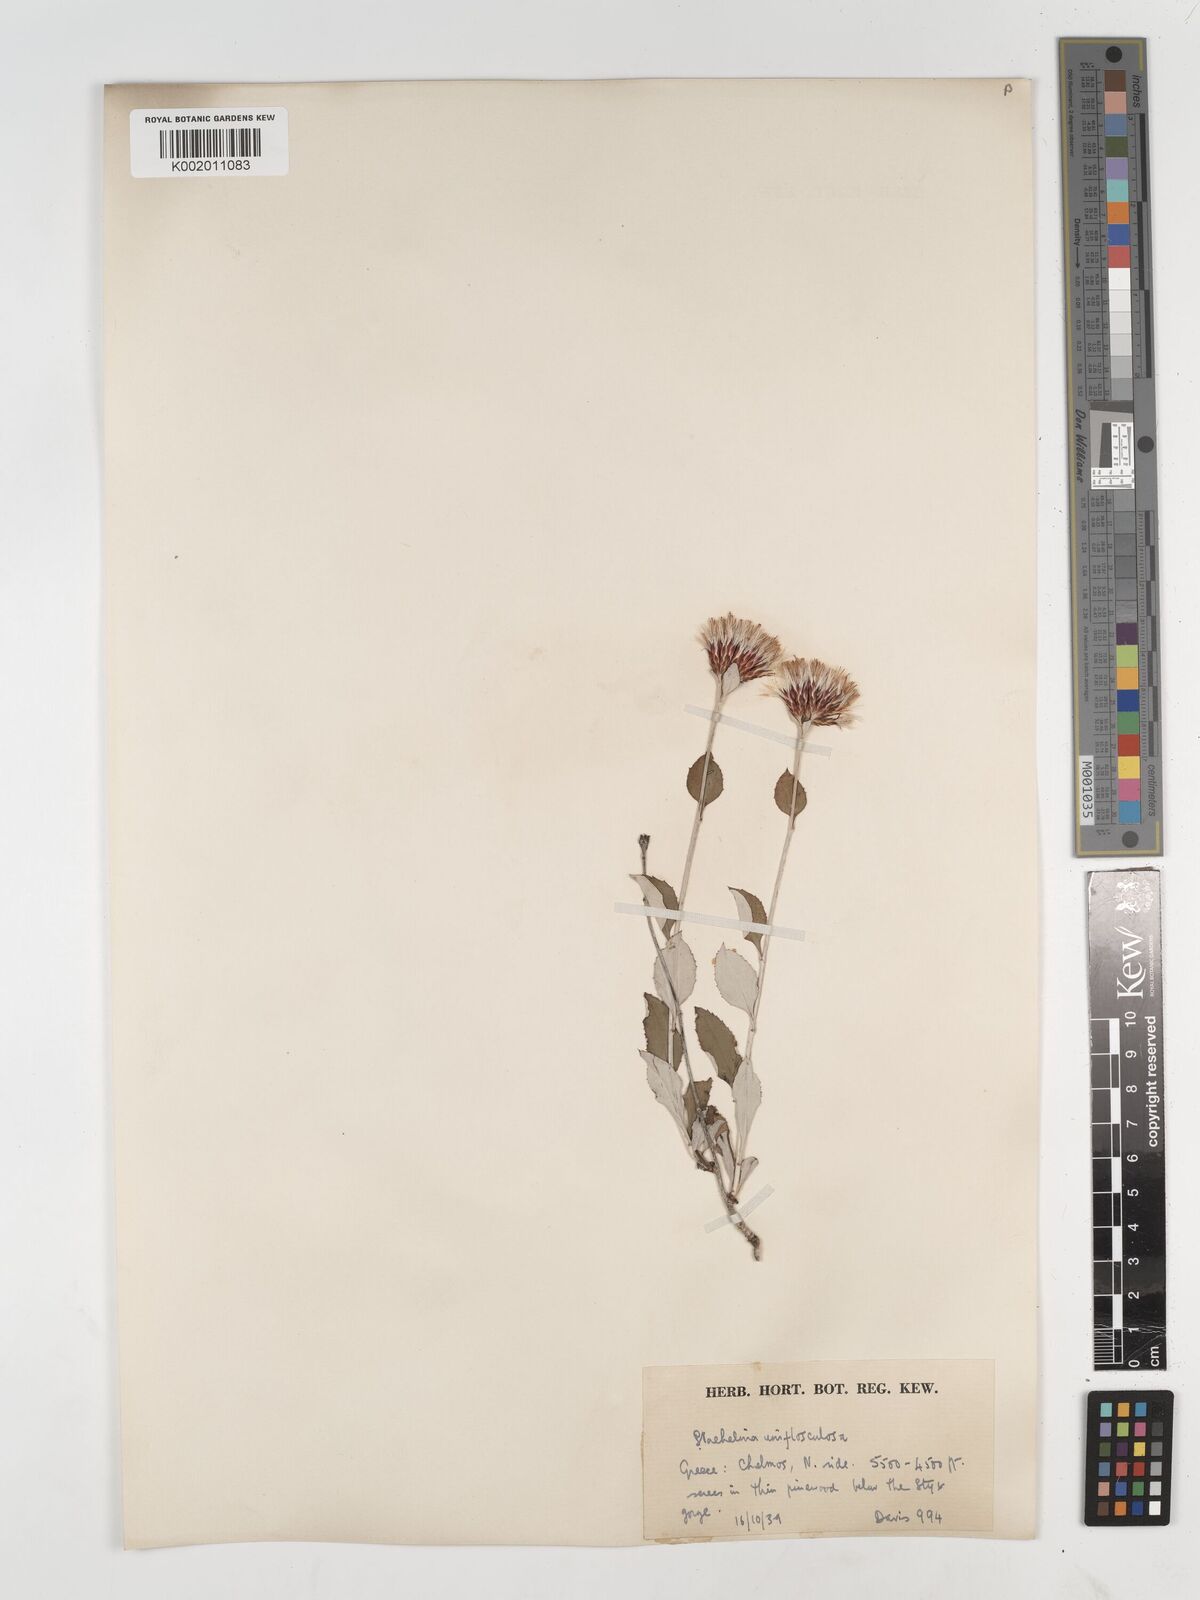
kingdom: Plantae
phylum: Tracheophyta
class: Magnoliopsida
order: Asterales
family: Asteraceae
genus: Staehelina
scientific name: Staehelina uniflosculosa
